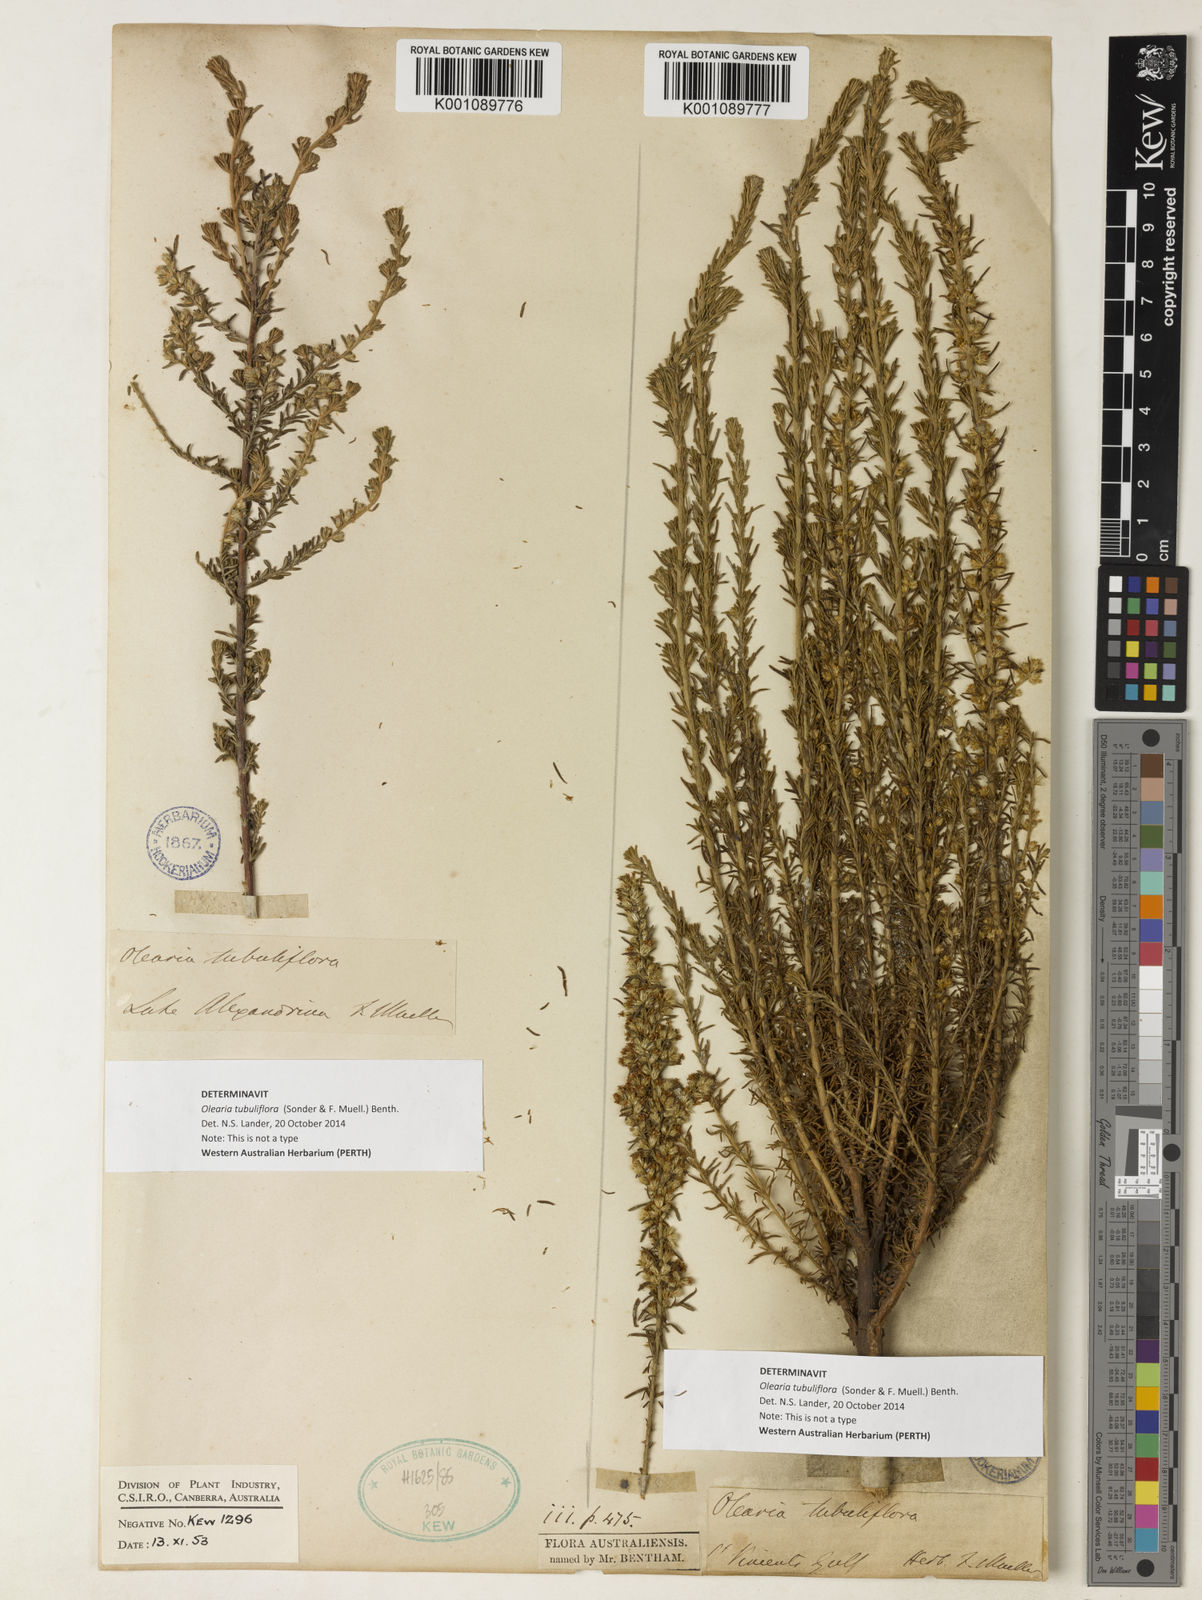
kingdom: Plantae
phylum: Tracheophyta
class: Magnoliopsida
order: Asterales
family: Asteraceae
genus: Olearia
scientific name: Olearia tubuliflora
